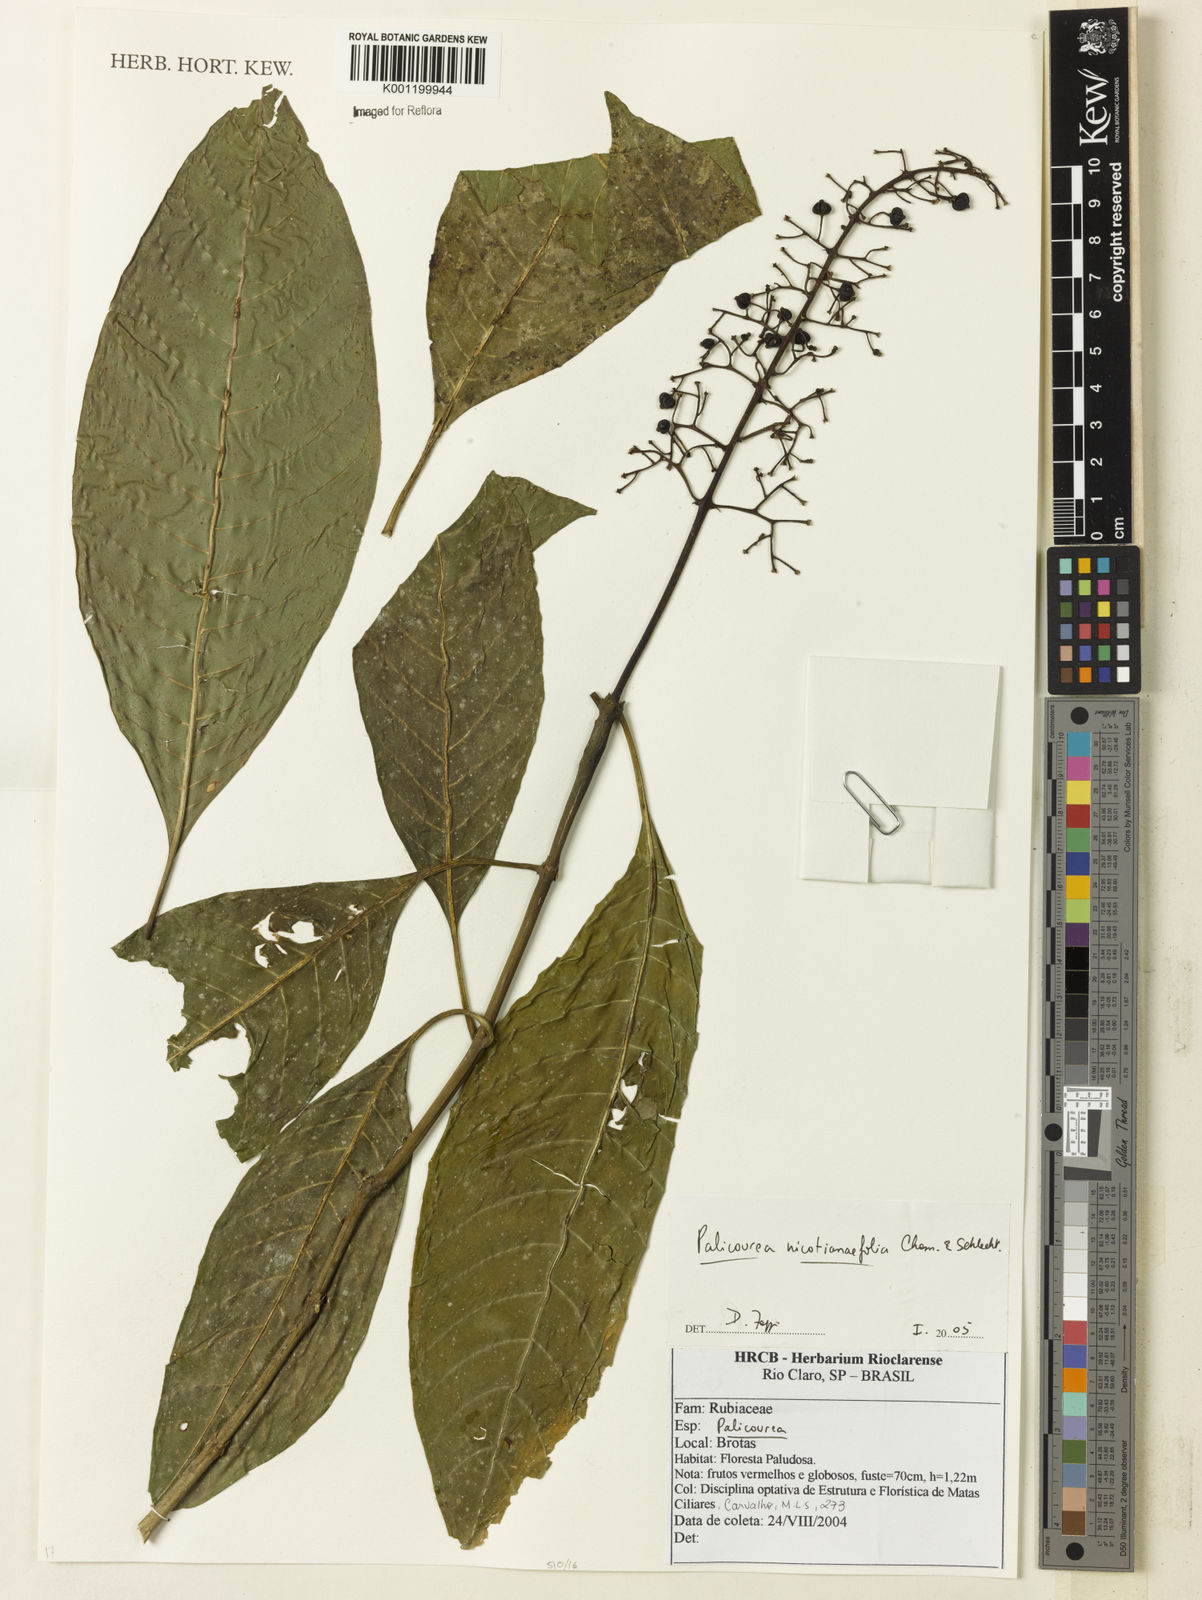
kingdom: Plantae
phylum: Tracheophyta
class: Magnoliopsida
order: Gentianales
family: Rubiaceae
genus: Palicourea
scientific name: Palicourea macrobotrys
